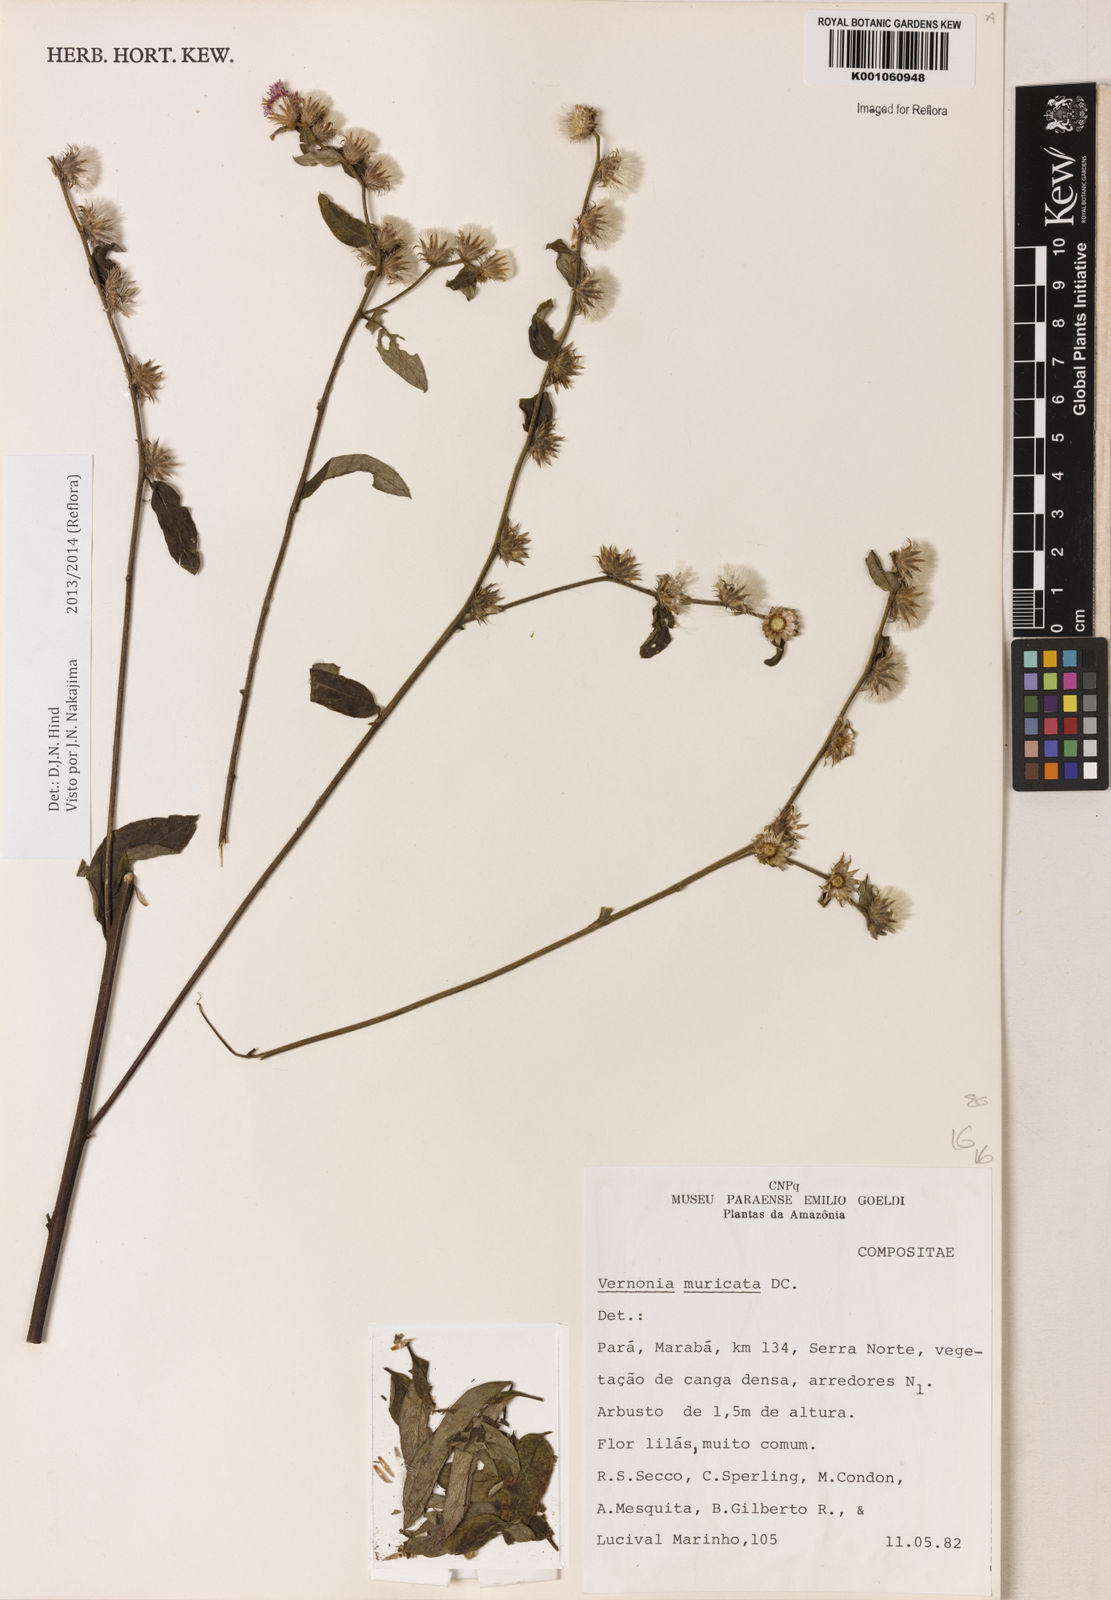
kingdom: Plantae
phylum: Tracheophyta
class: Magnoliopsida
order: Asterales
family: Asteraceae
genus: Lepidaploa
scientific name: Lepidaploa muricata
